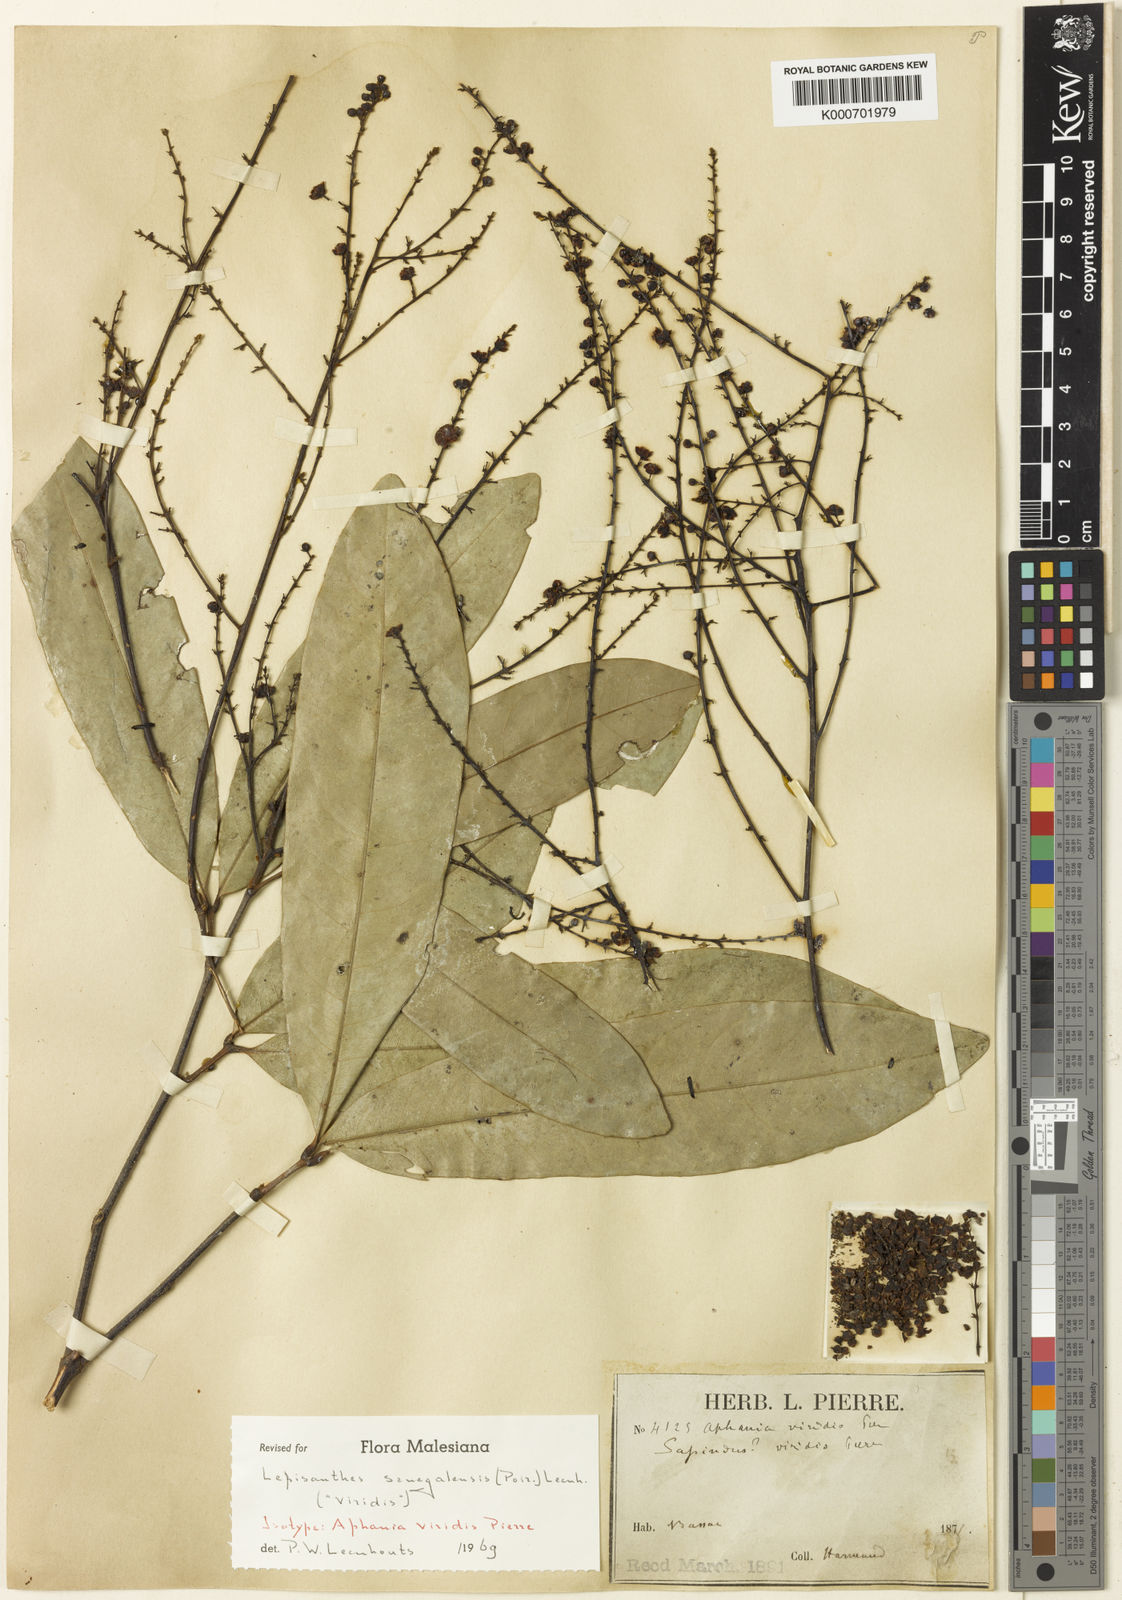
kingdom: Plantae
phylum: Tracheophyta
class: Magnoliopsida
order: Sapindales
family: Sapindaceae
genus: Lepisanthes
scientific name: Lepisanthes senegalensis
